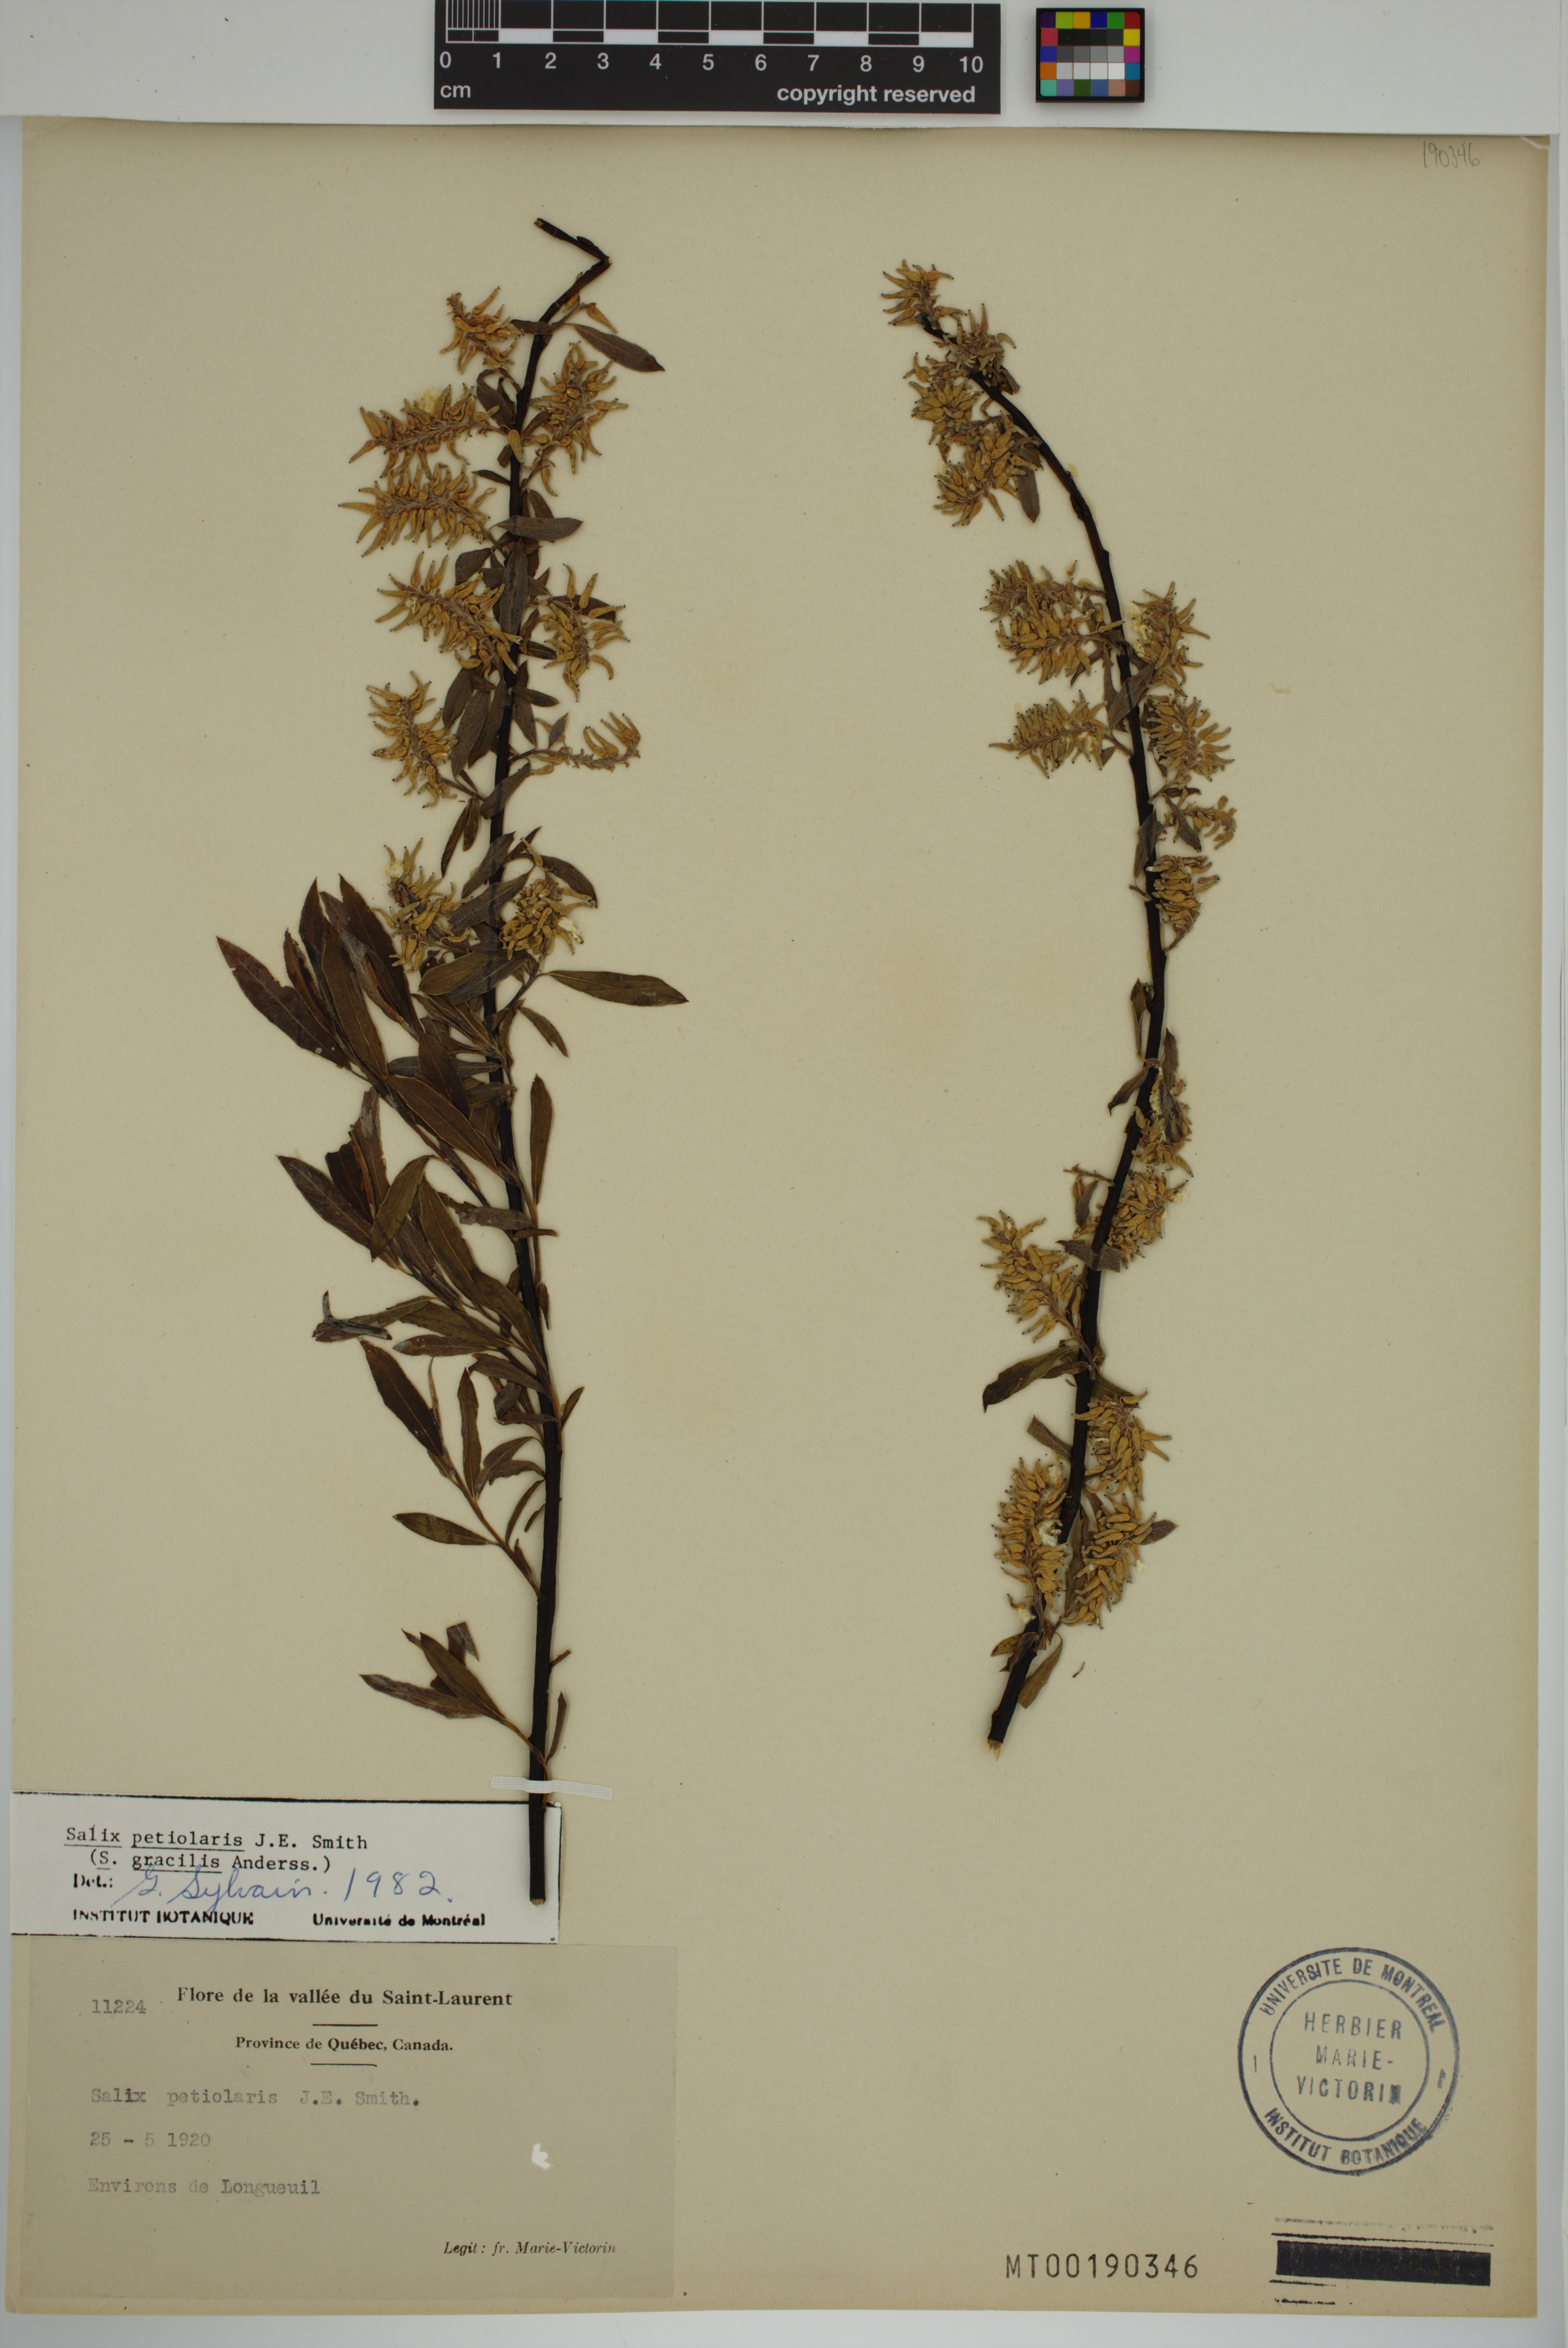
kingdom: Plantae
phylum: Tracheophyta
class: Magnoliopsida
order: Malpighiales
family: Salicaceae
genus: Salix
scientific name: Salix petiolaris
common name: Slender willow
